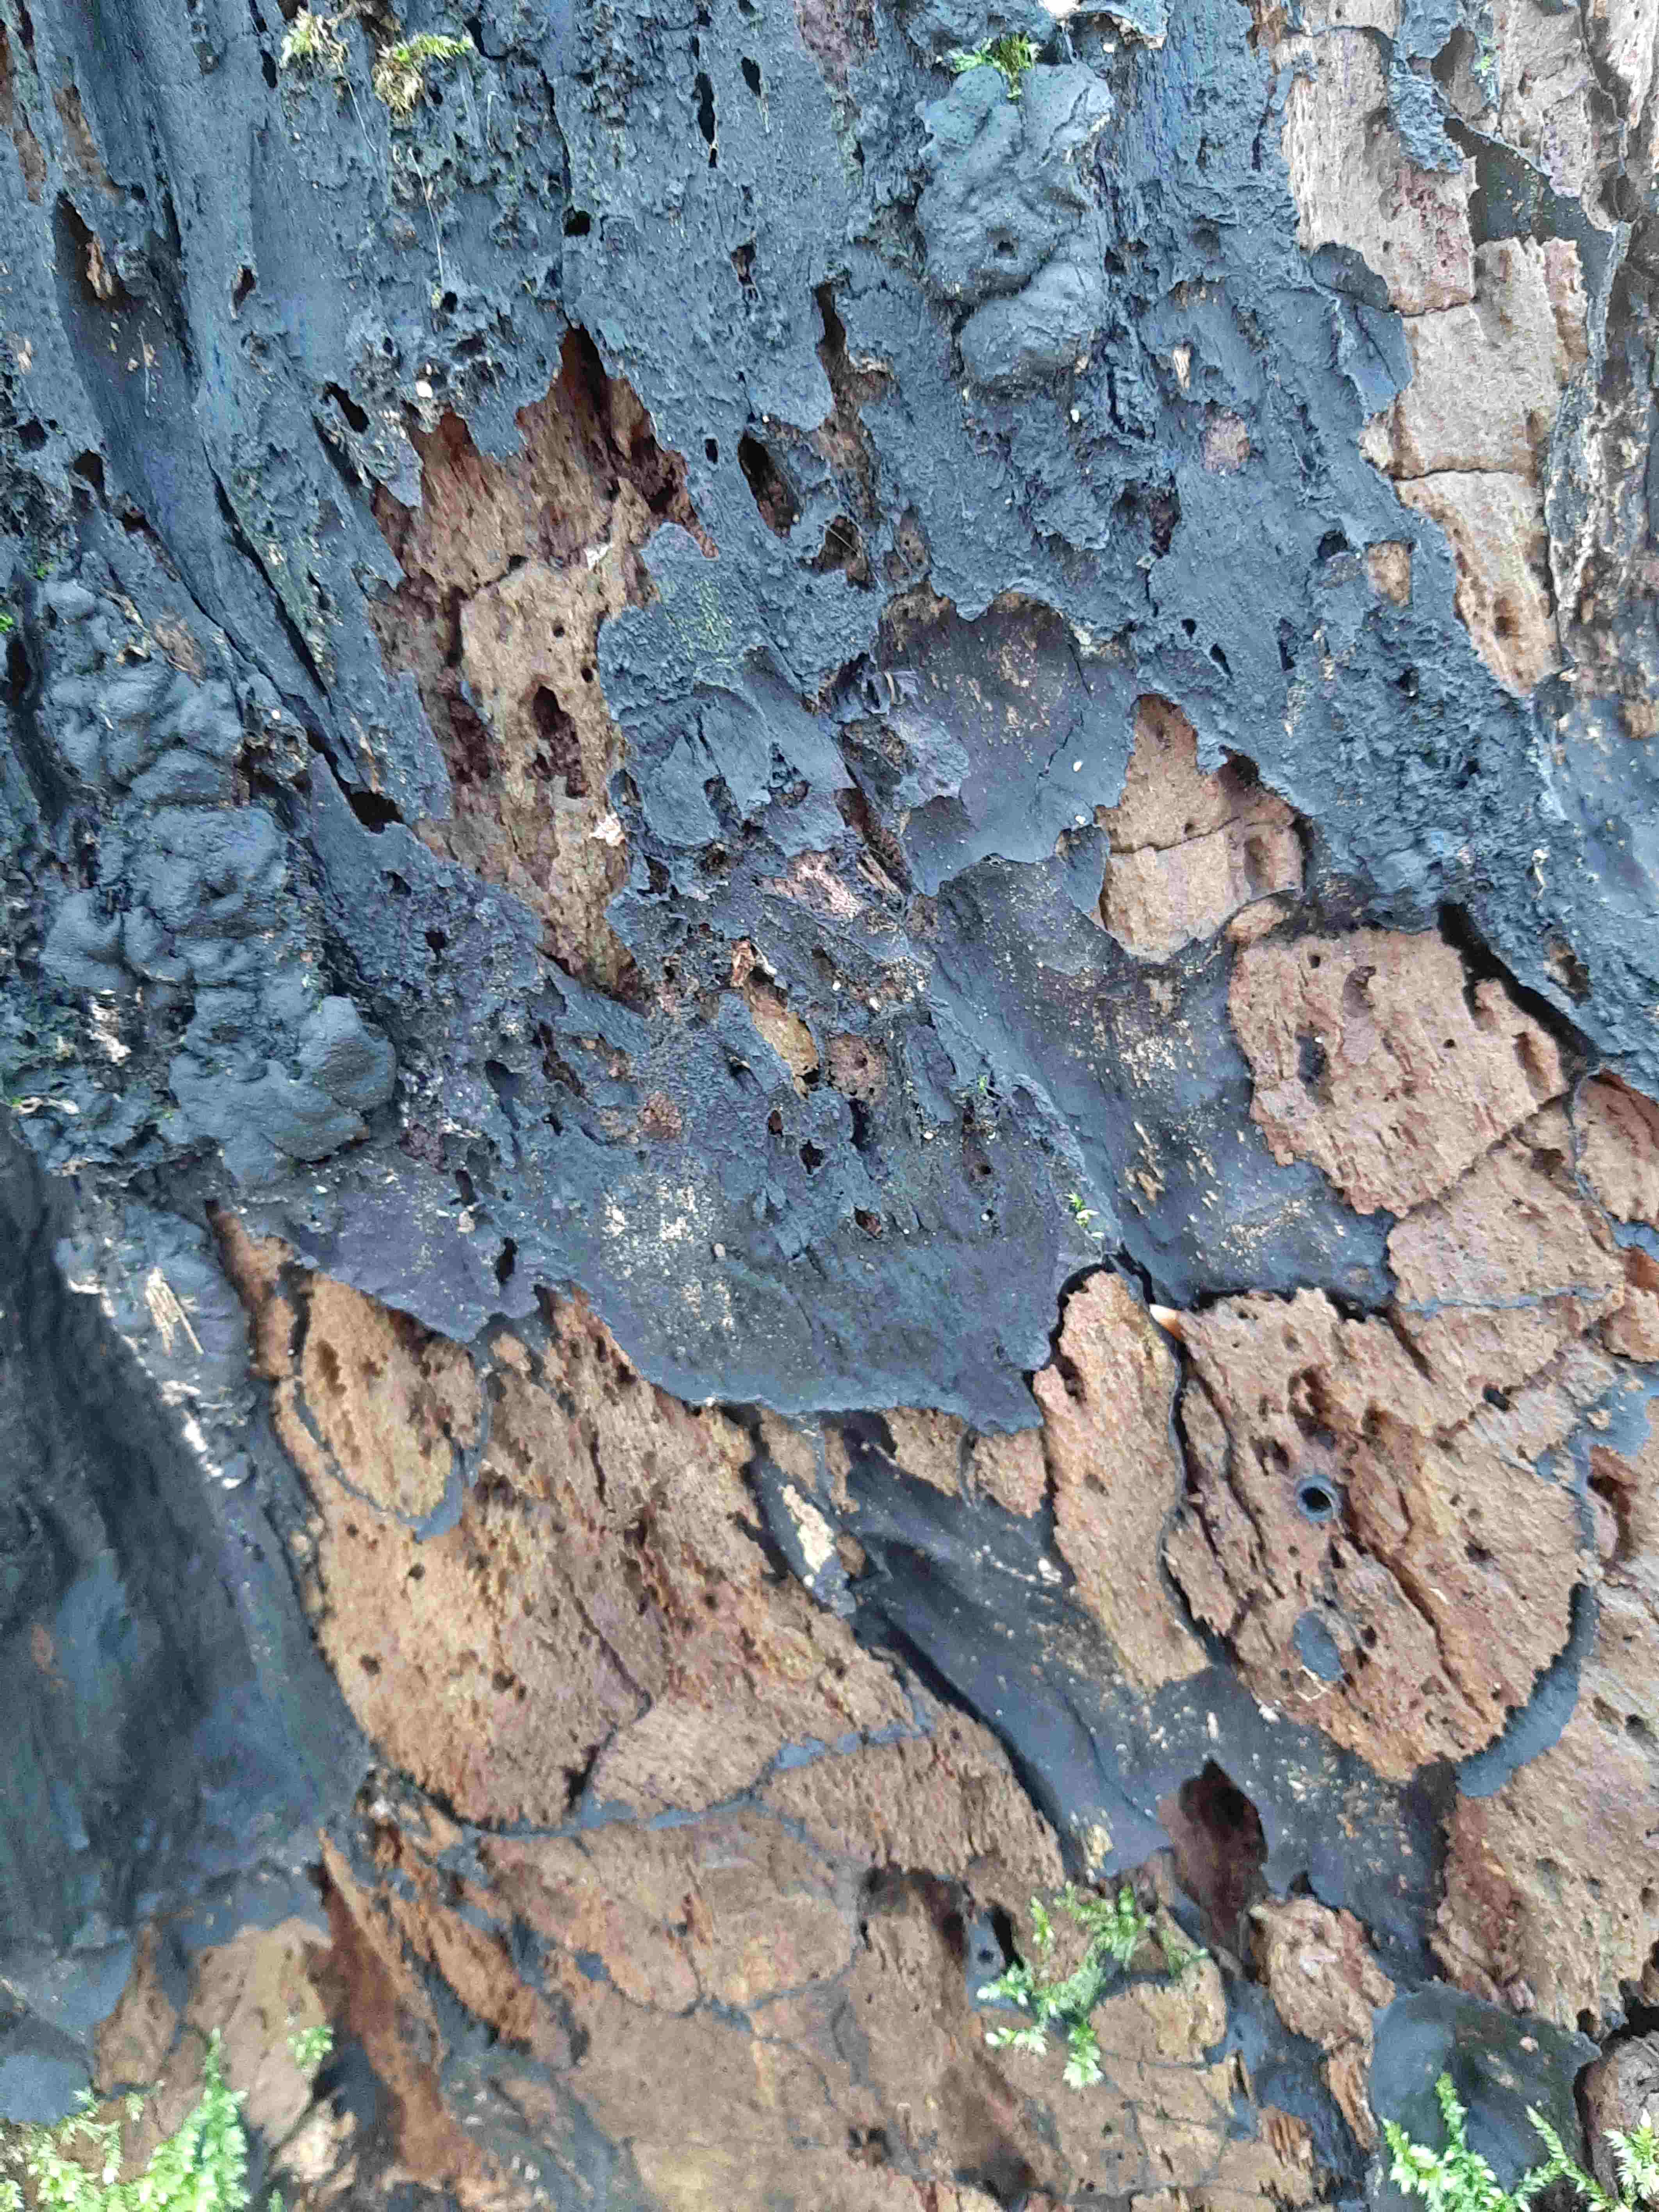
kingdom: Fungi
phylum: Ascomycota
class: Sordariomycetes
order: Xylariales
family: Xylariaceae
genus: Kretzschmaria
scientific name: Kretzschmaria deusta
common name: stor kulsvamp
